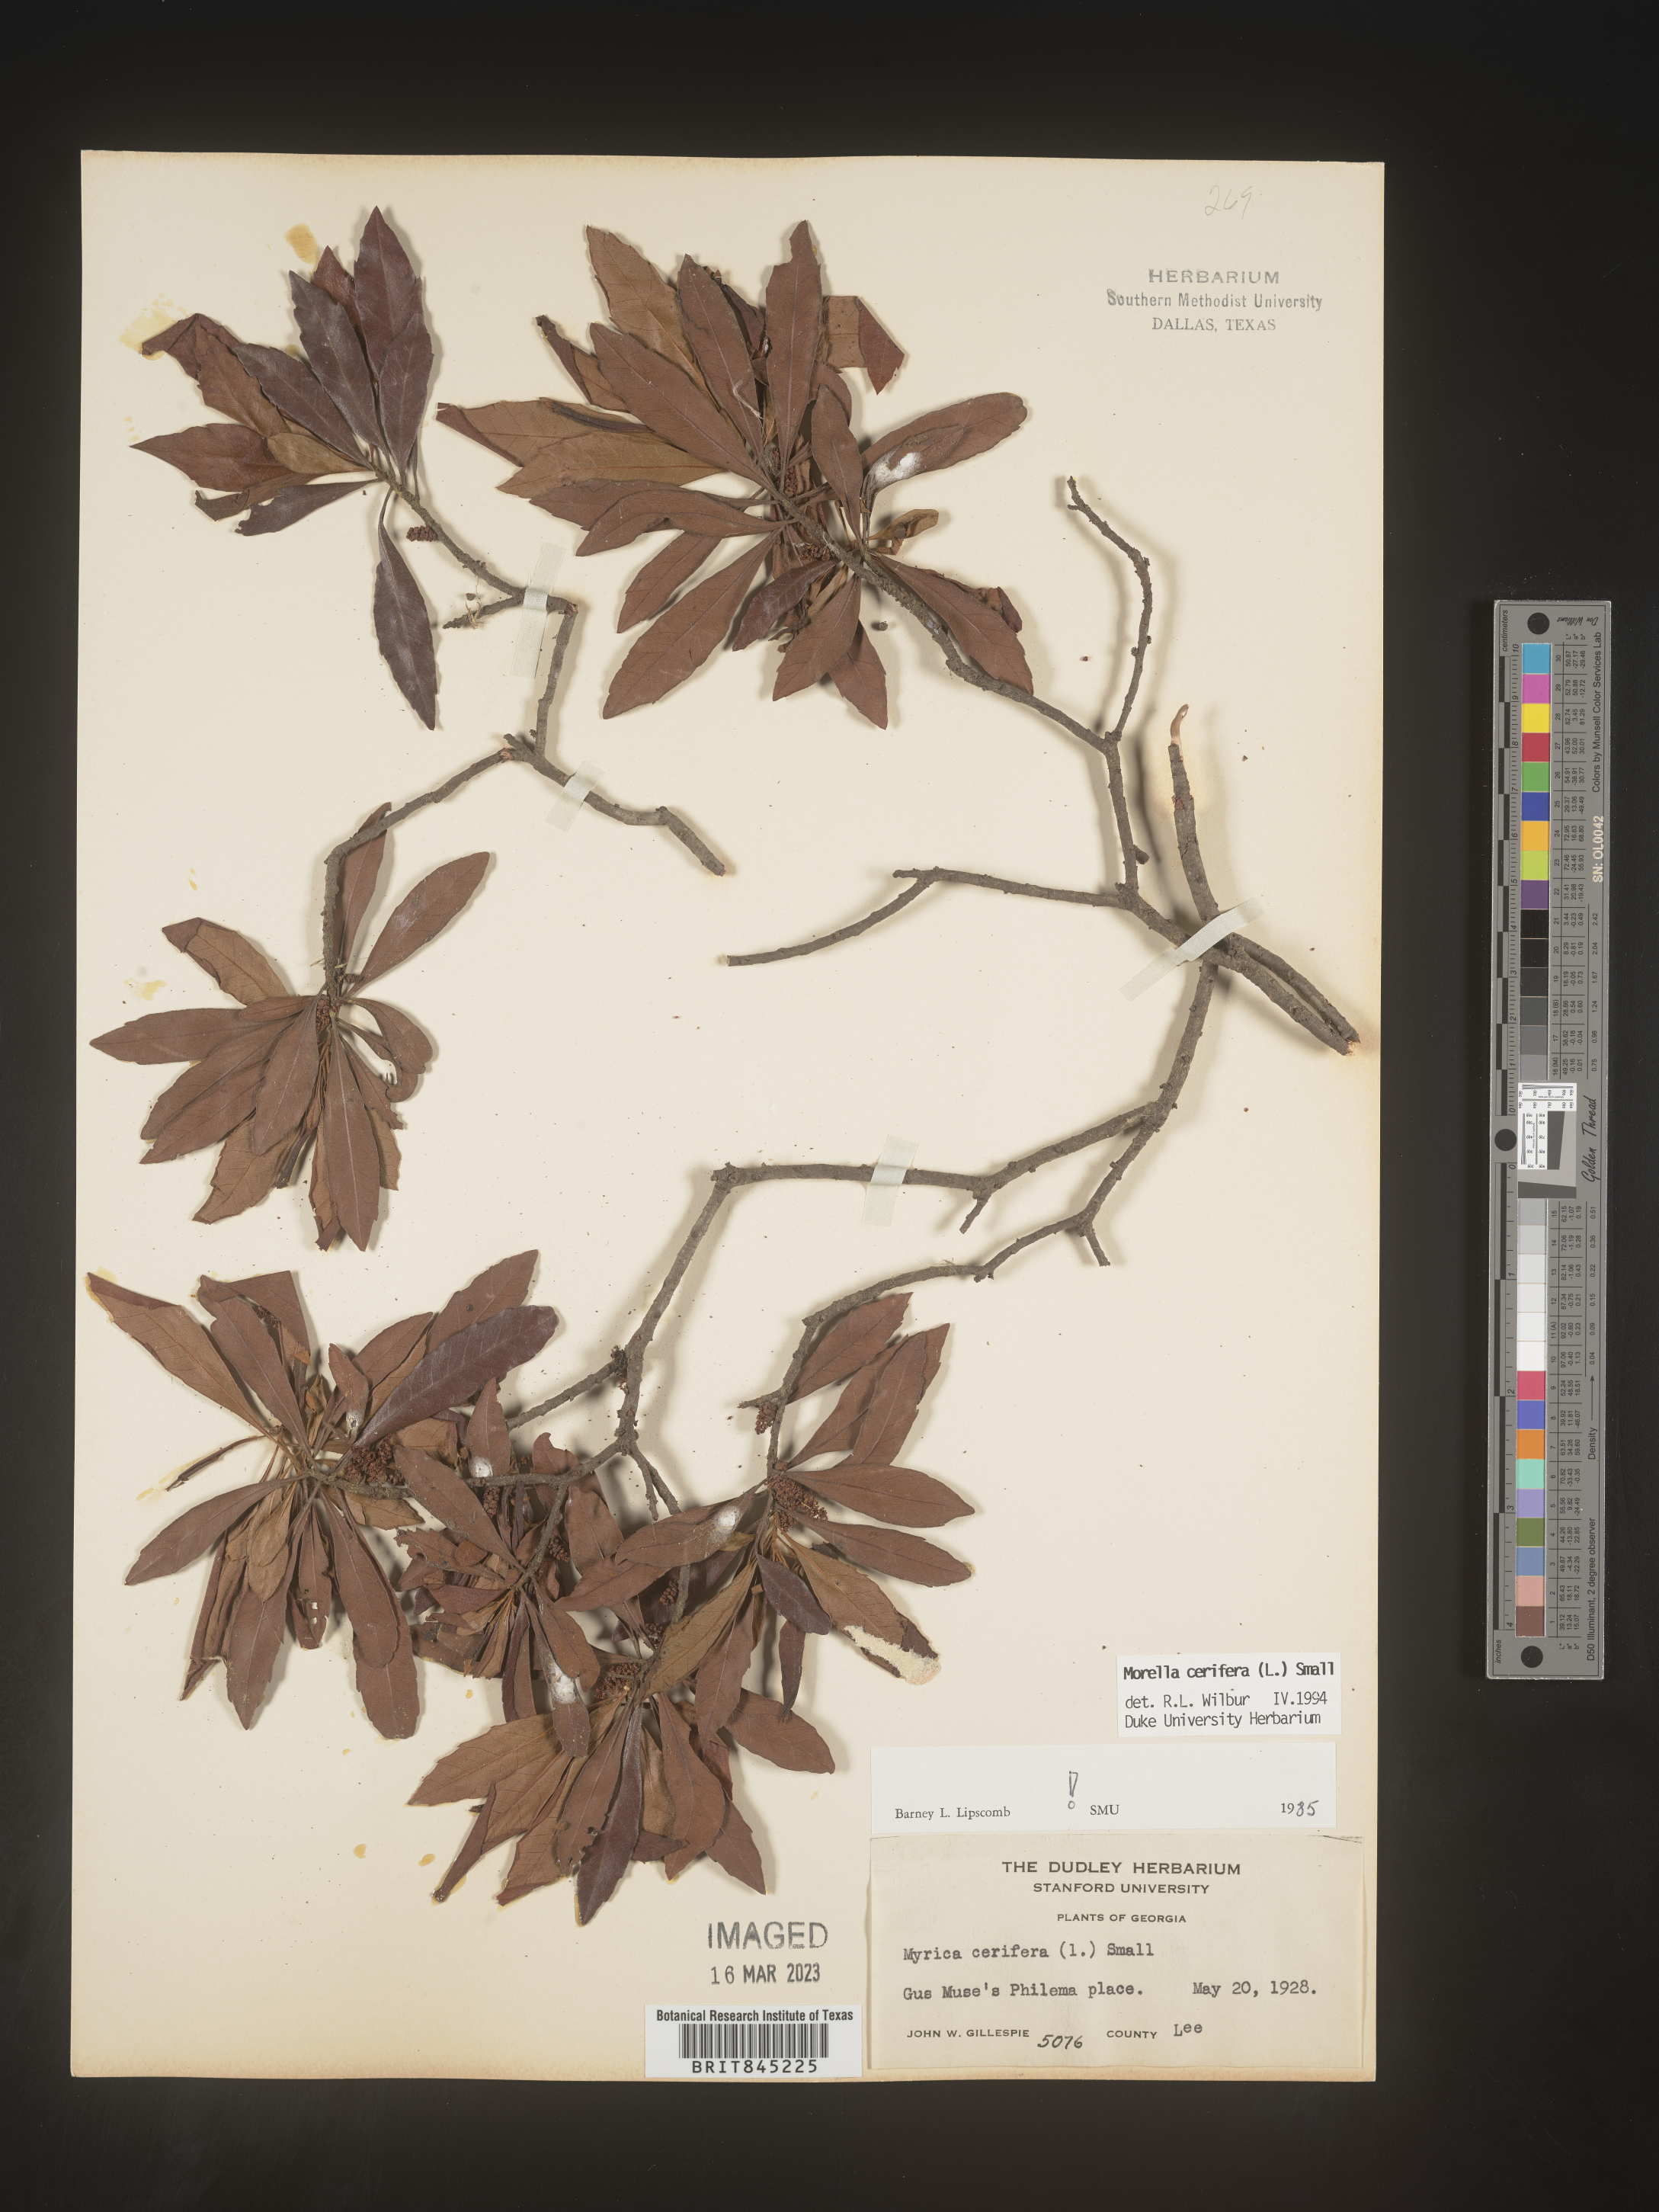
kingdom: Plantae
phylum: Tracheophyta
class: Magnoliopsida
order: Fagales
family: Myricaceae
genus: Morella
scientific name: Morella cerifera
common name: Wax myrtle
